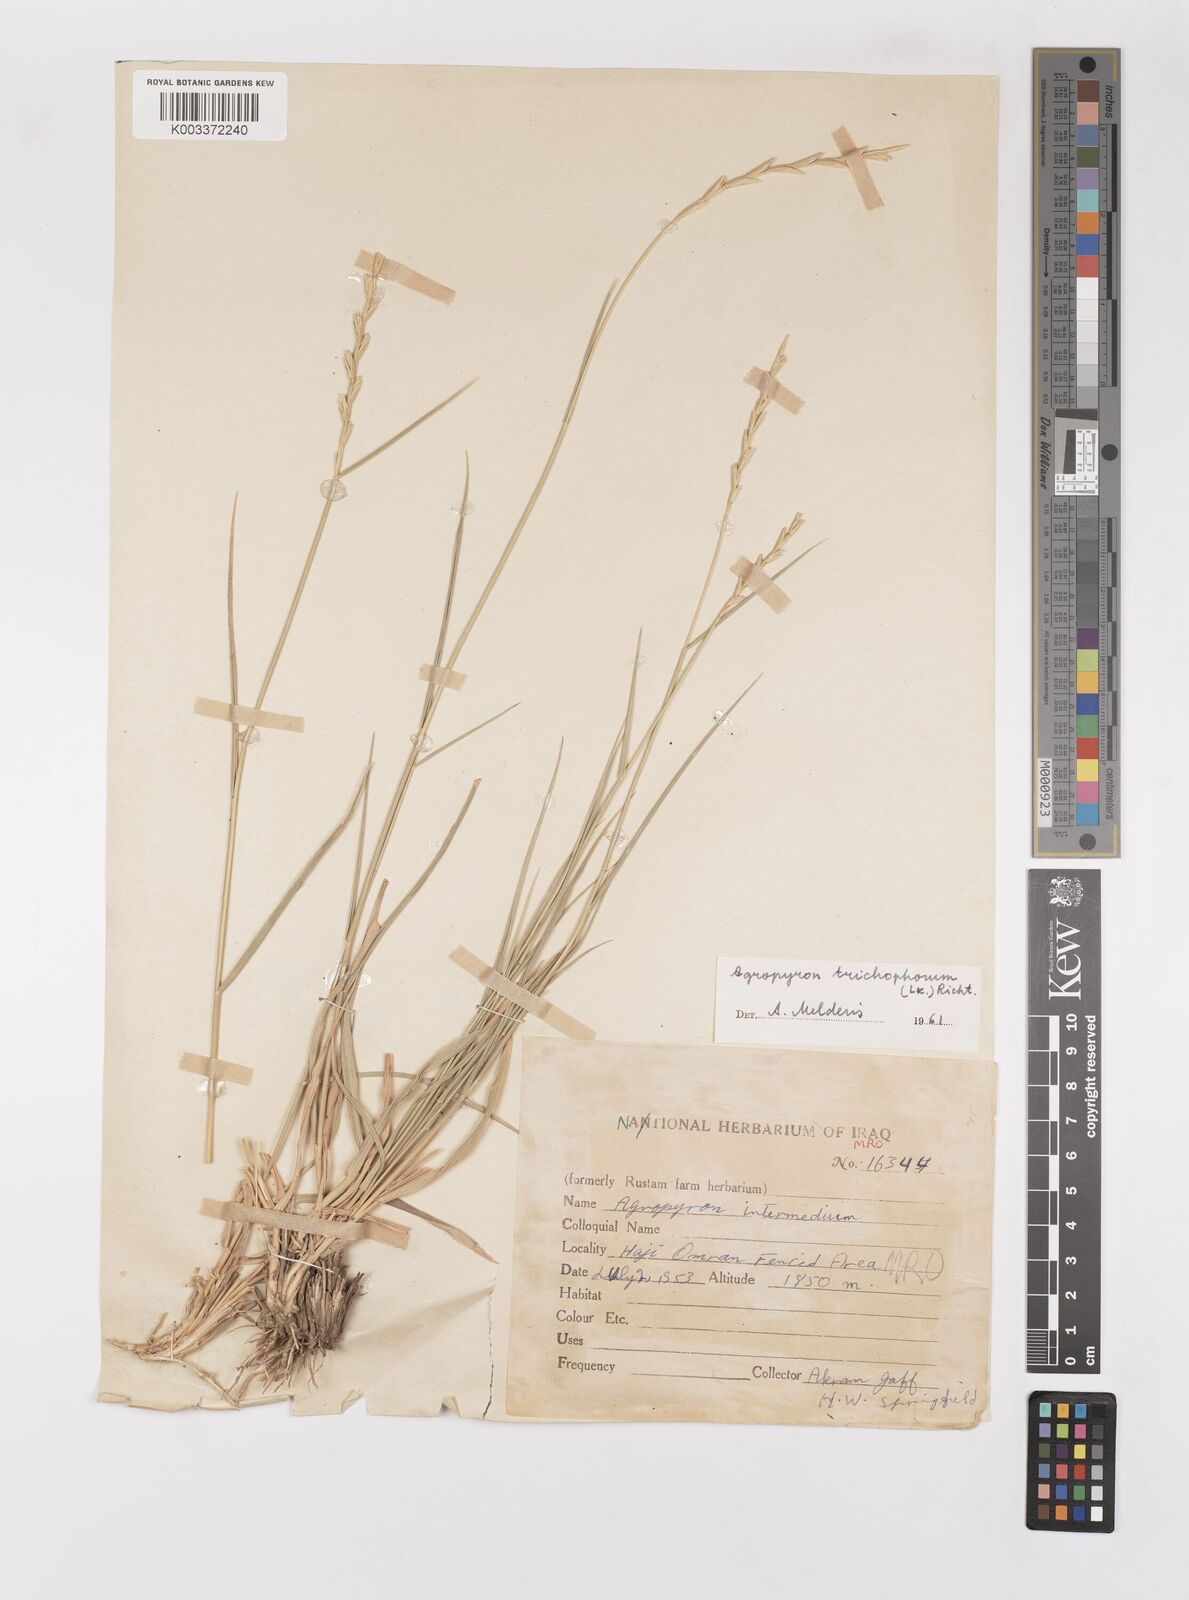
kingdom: Plantae
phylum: Tracheophyta
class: Liliopsida
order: Poales
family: Poaceae
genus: Thinopyrum
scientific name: Thinopyrum intermedium
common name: Intermediate wheatgrass
